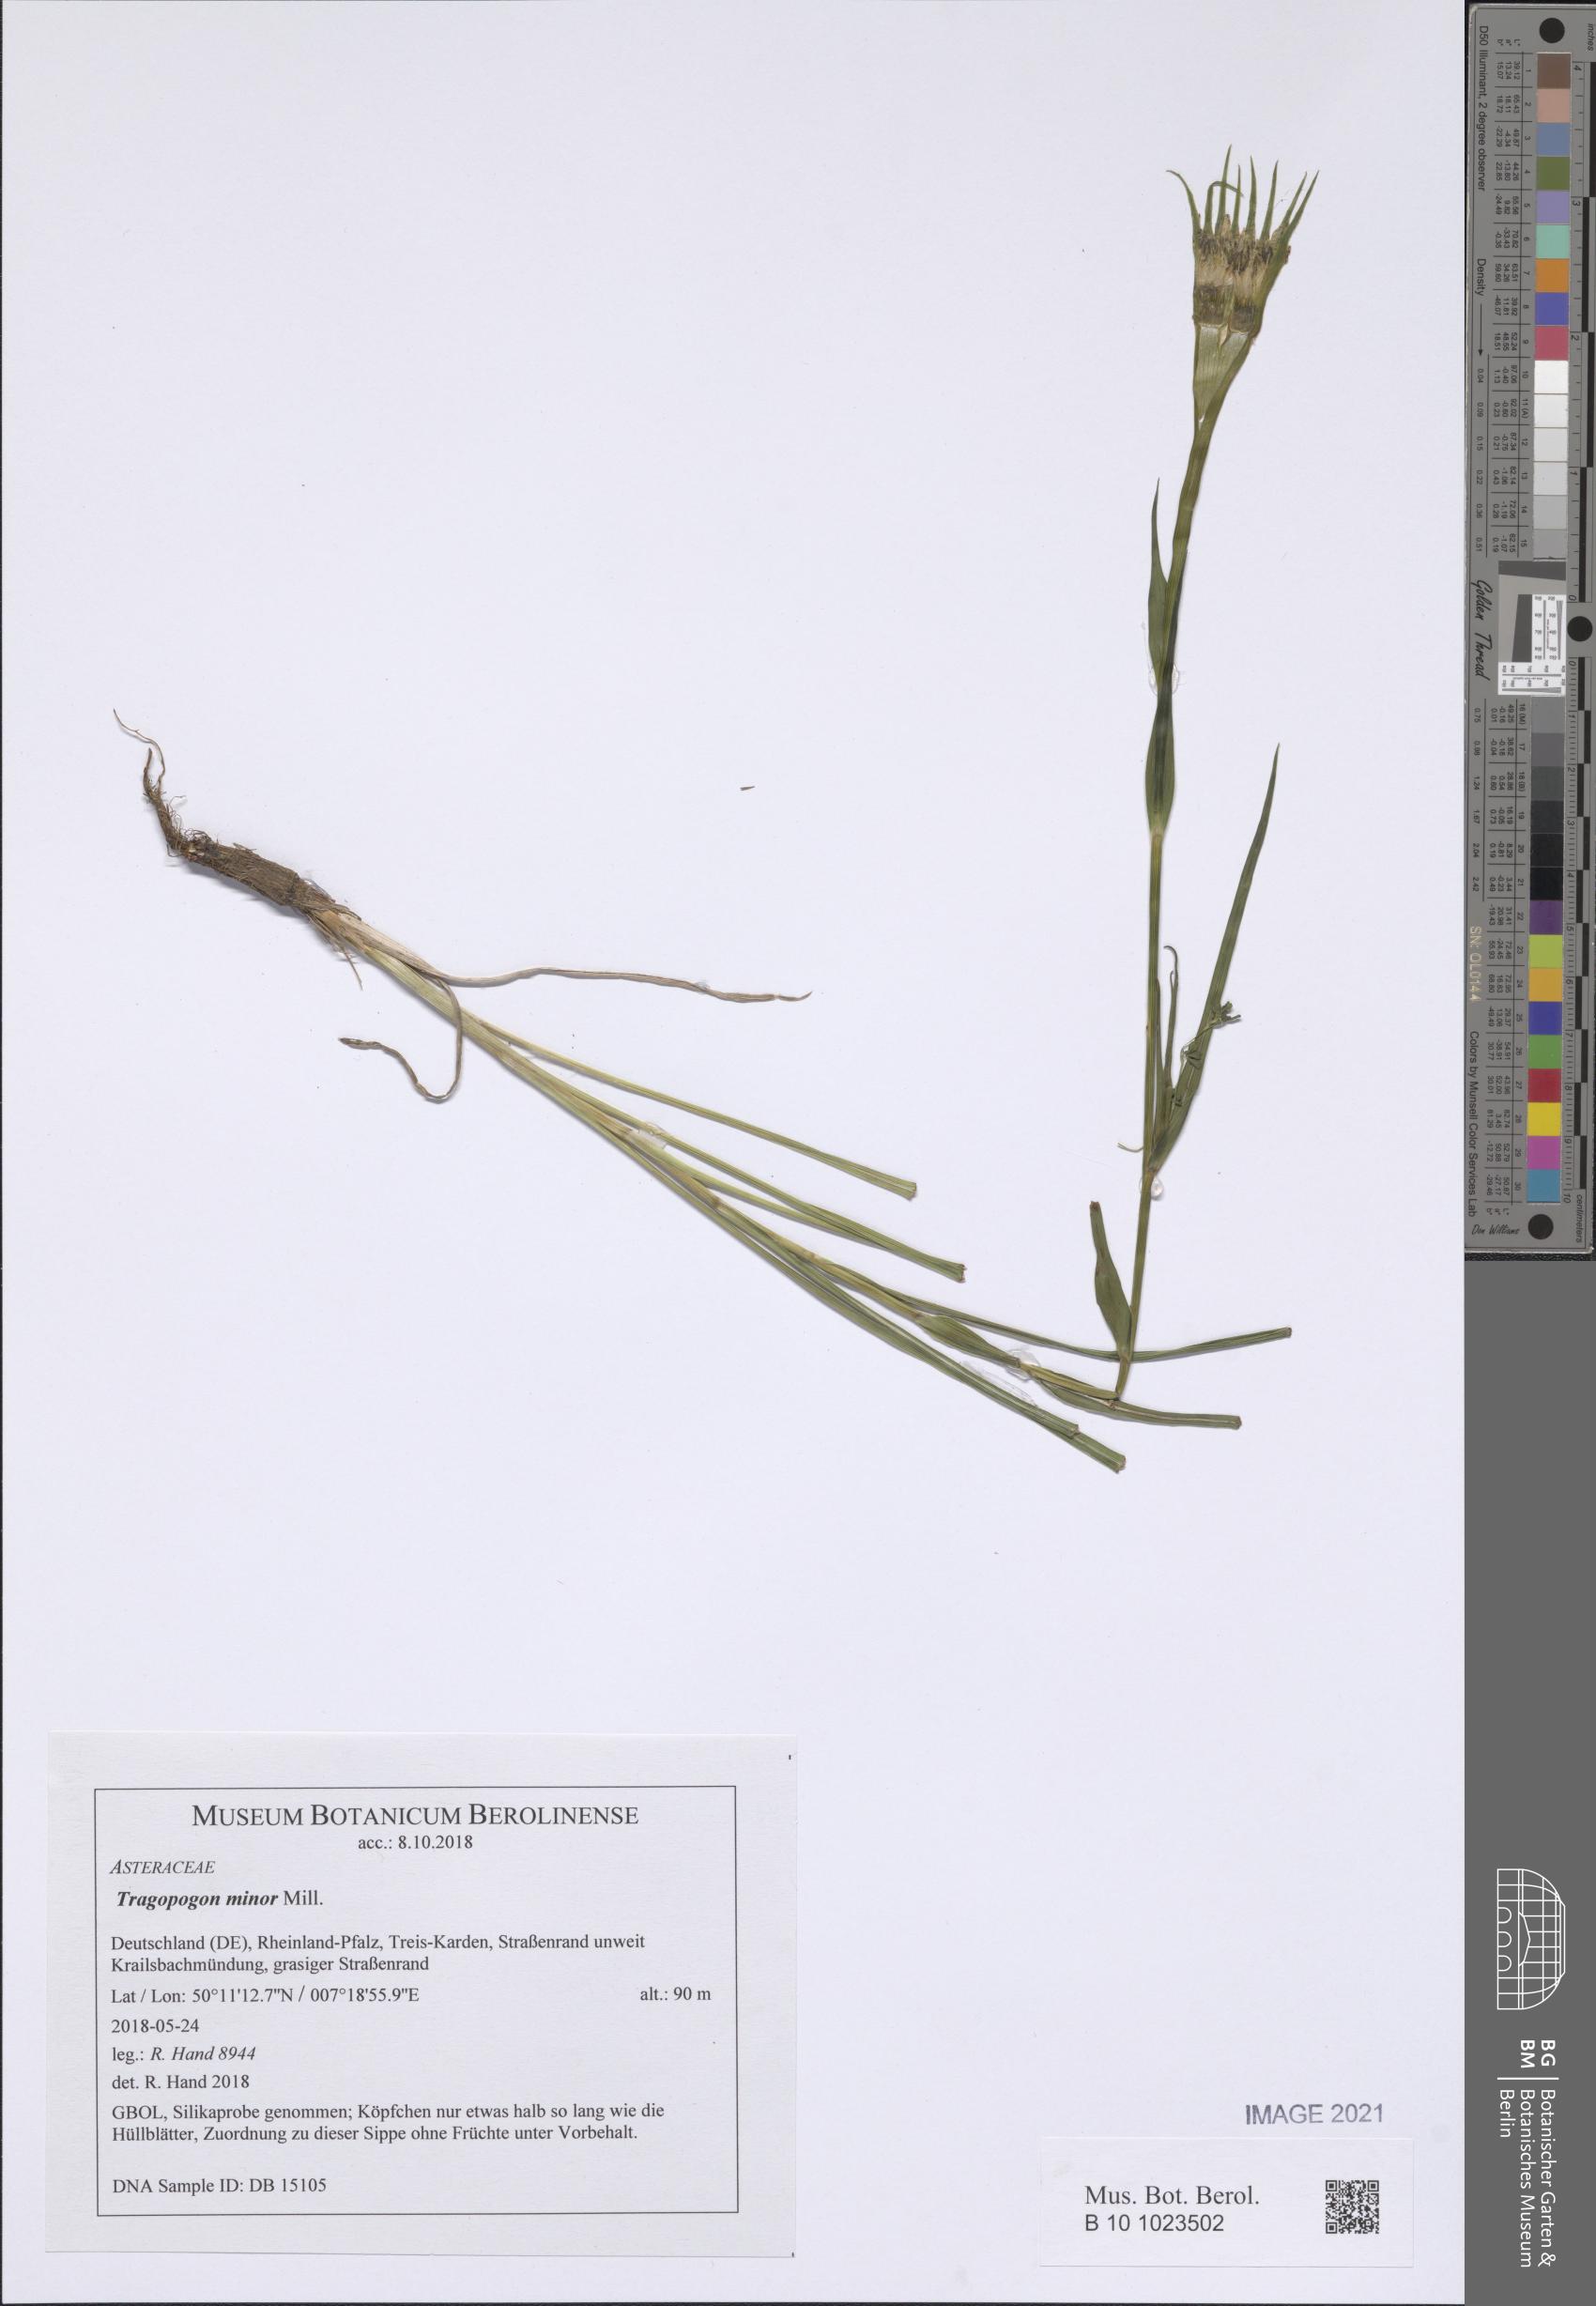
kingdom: Plantae
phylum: Tracheophyta
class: Magnoliopsida
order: Asterales
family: Asteraceae
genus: Tragopogon
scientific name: Tragopogon minor
